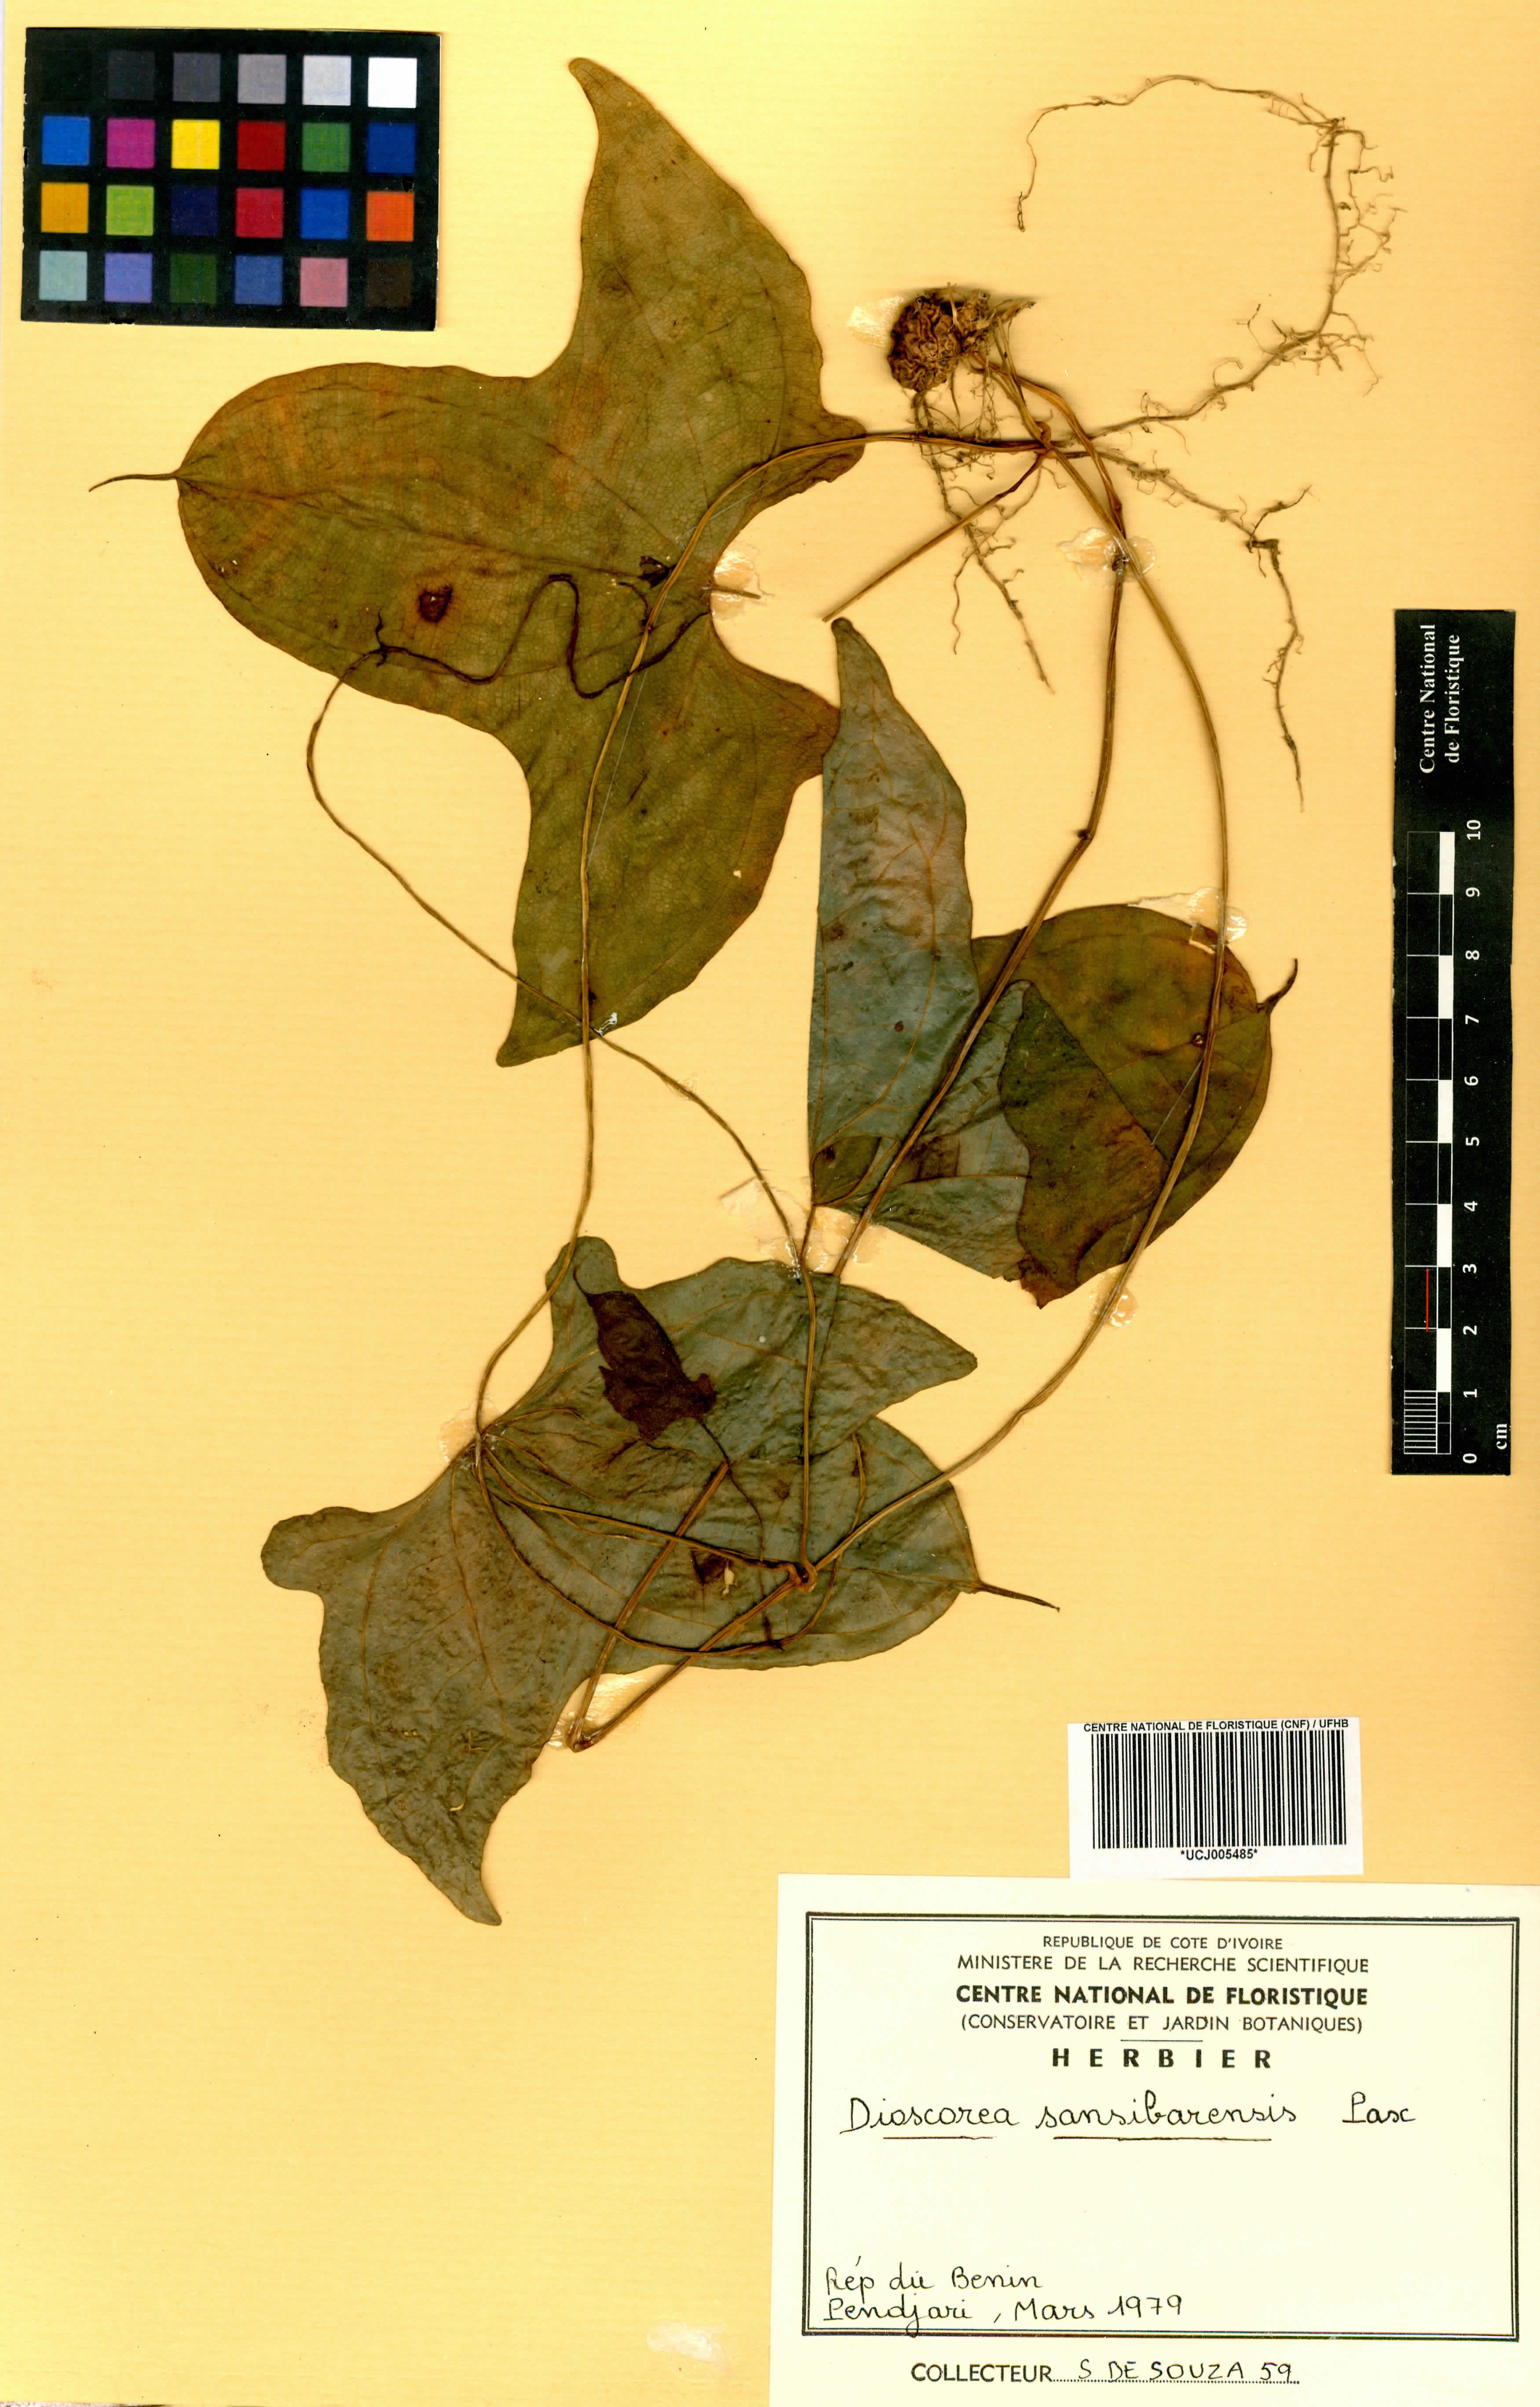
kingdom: Plantae
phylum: Tracheophyta
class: Liliopsida
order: Dioscoreales
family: Dioscoreaceae
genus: Dioscorea
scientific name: Dioscorea sansibarensis
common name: Zanzibar yam
